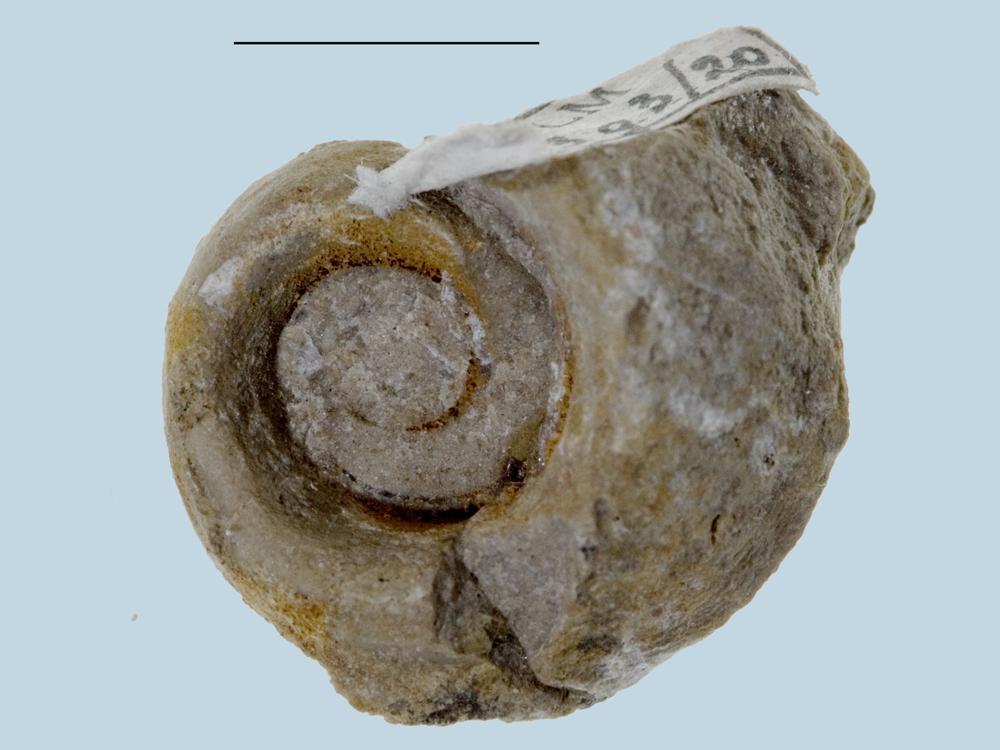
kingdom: Animalia
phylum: Mollusca
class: Gastropoda
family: Bucaniidae
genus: Bucania
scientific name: Bucania Bellerophon radiata
